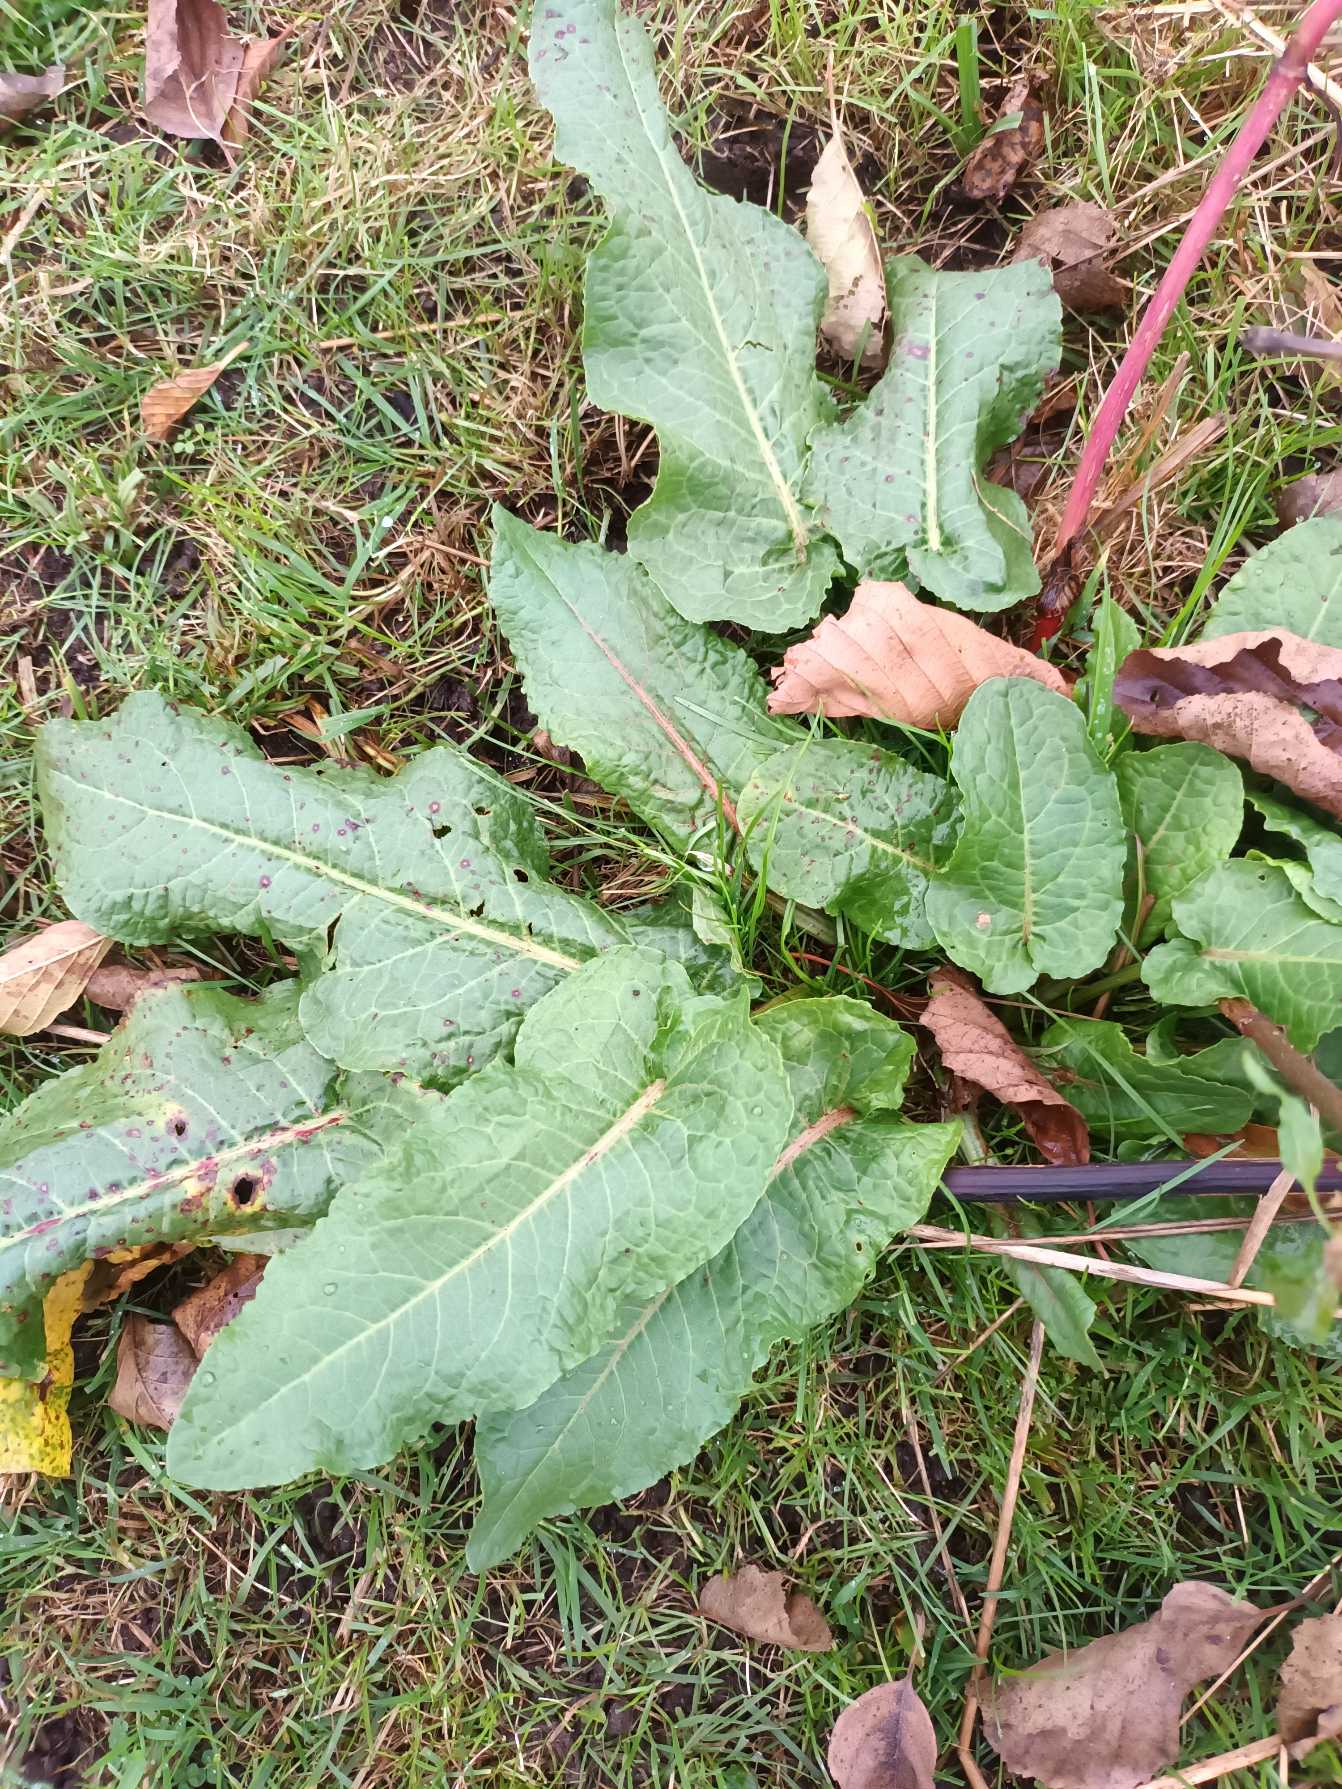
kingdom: Plantae
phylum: Tracheophyta
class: Magnoliopsida
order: Caryophyllales
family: Polygonaceae
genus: Rumex
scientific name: Rumex obtusifolius
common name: Butbladet skræppe
